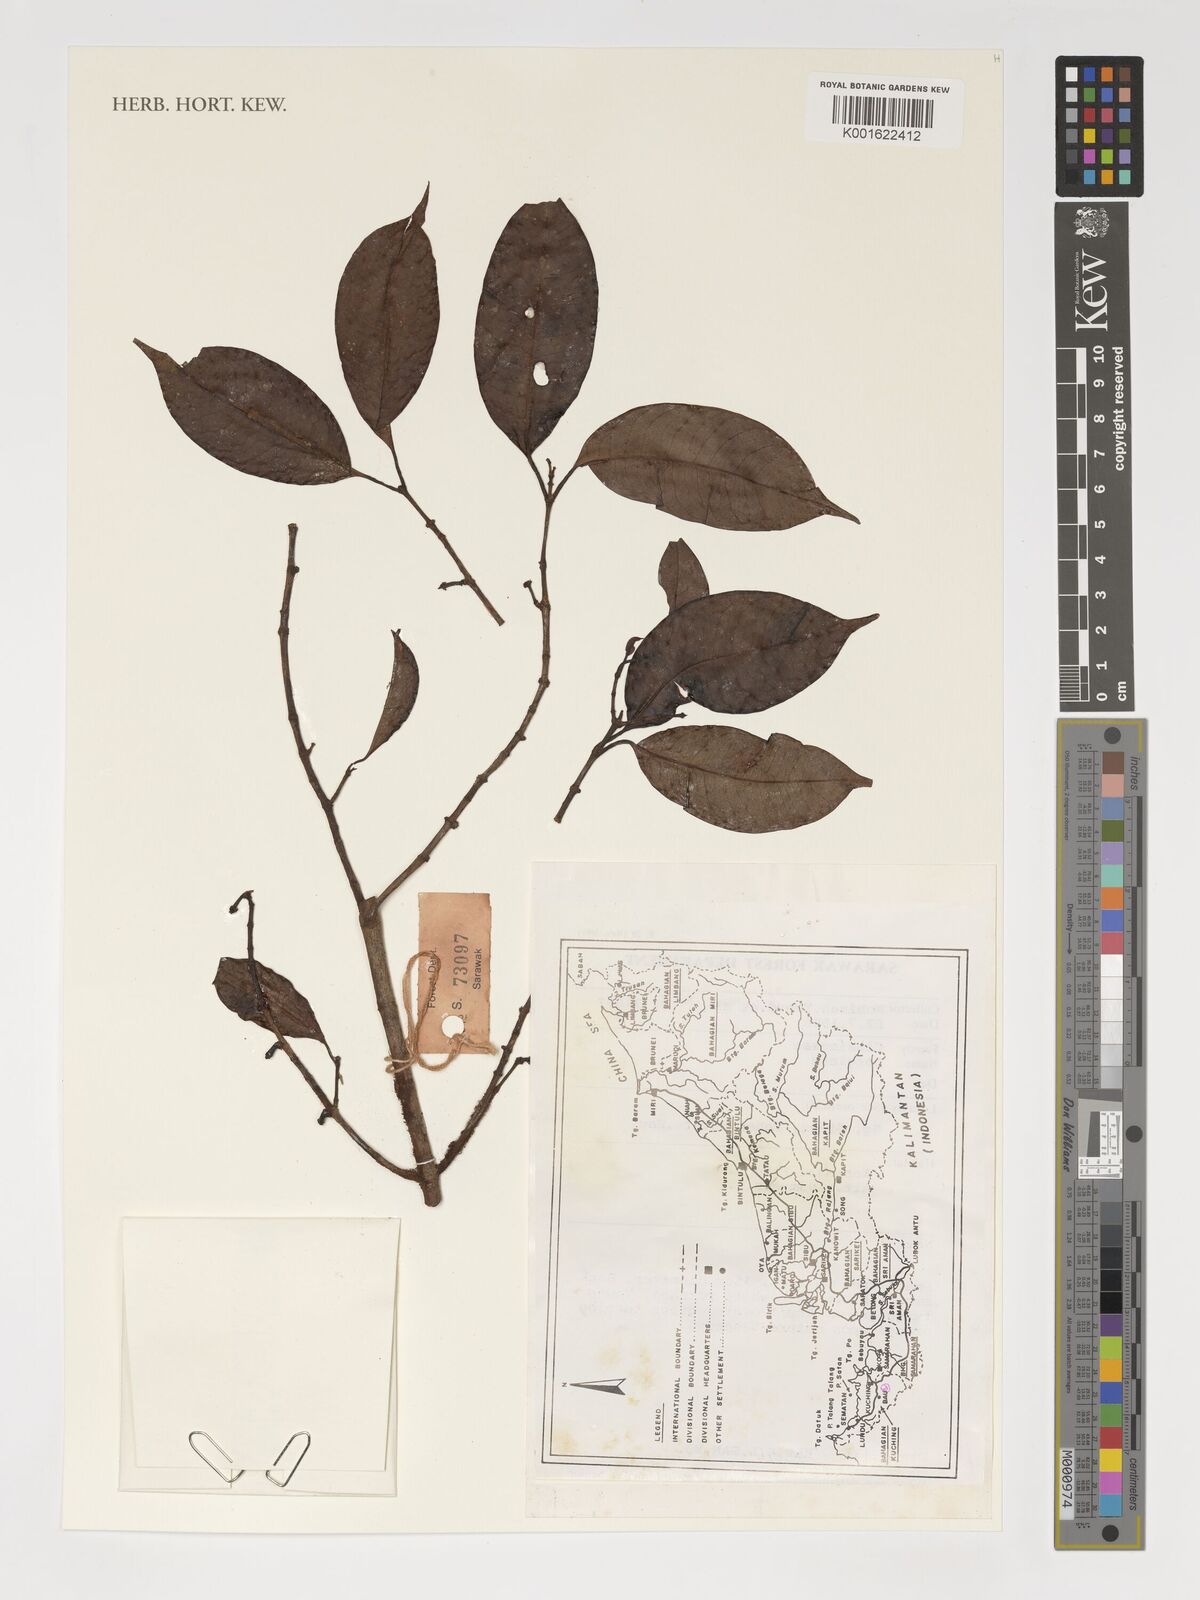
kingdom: Plantae
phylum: Tracheophyta
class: Magnoliopsida
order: Malpighiales
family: Clusiaceae
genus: Garcinia
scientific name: Garcinia
